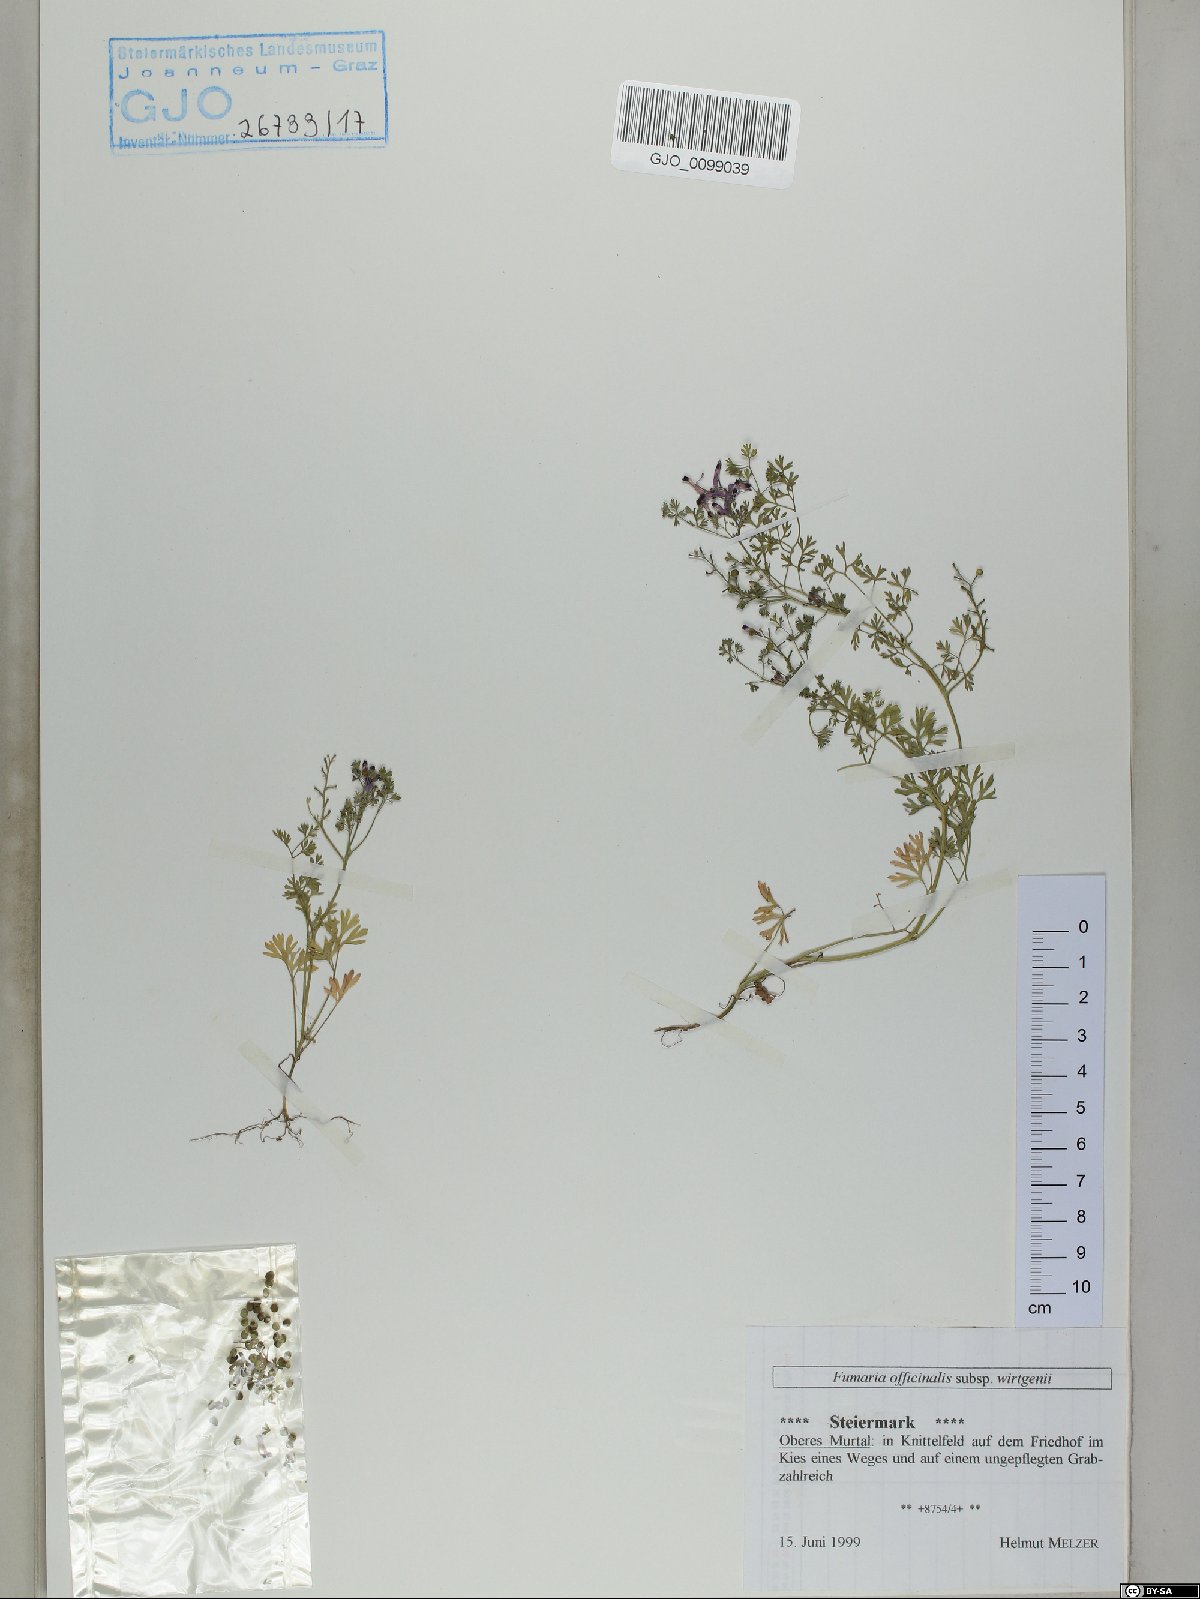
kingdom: Plantae
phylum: Tracheophyta
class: Magnoliopsida
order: Ranunculales
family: Papaveraceae
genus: Fumaria
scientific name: Fumaria wirtgenii
